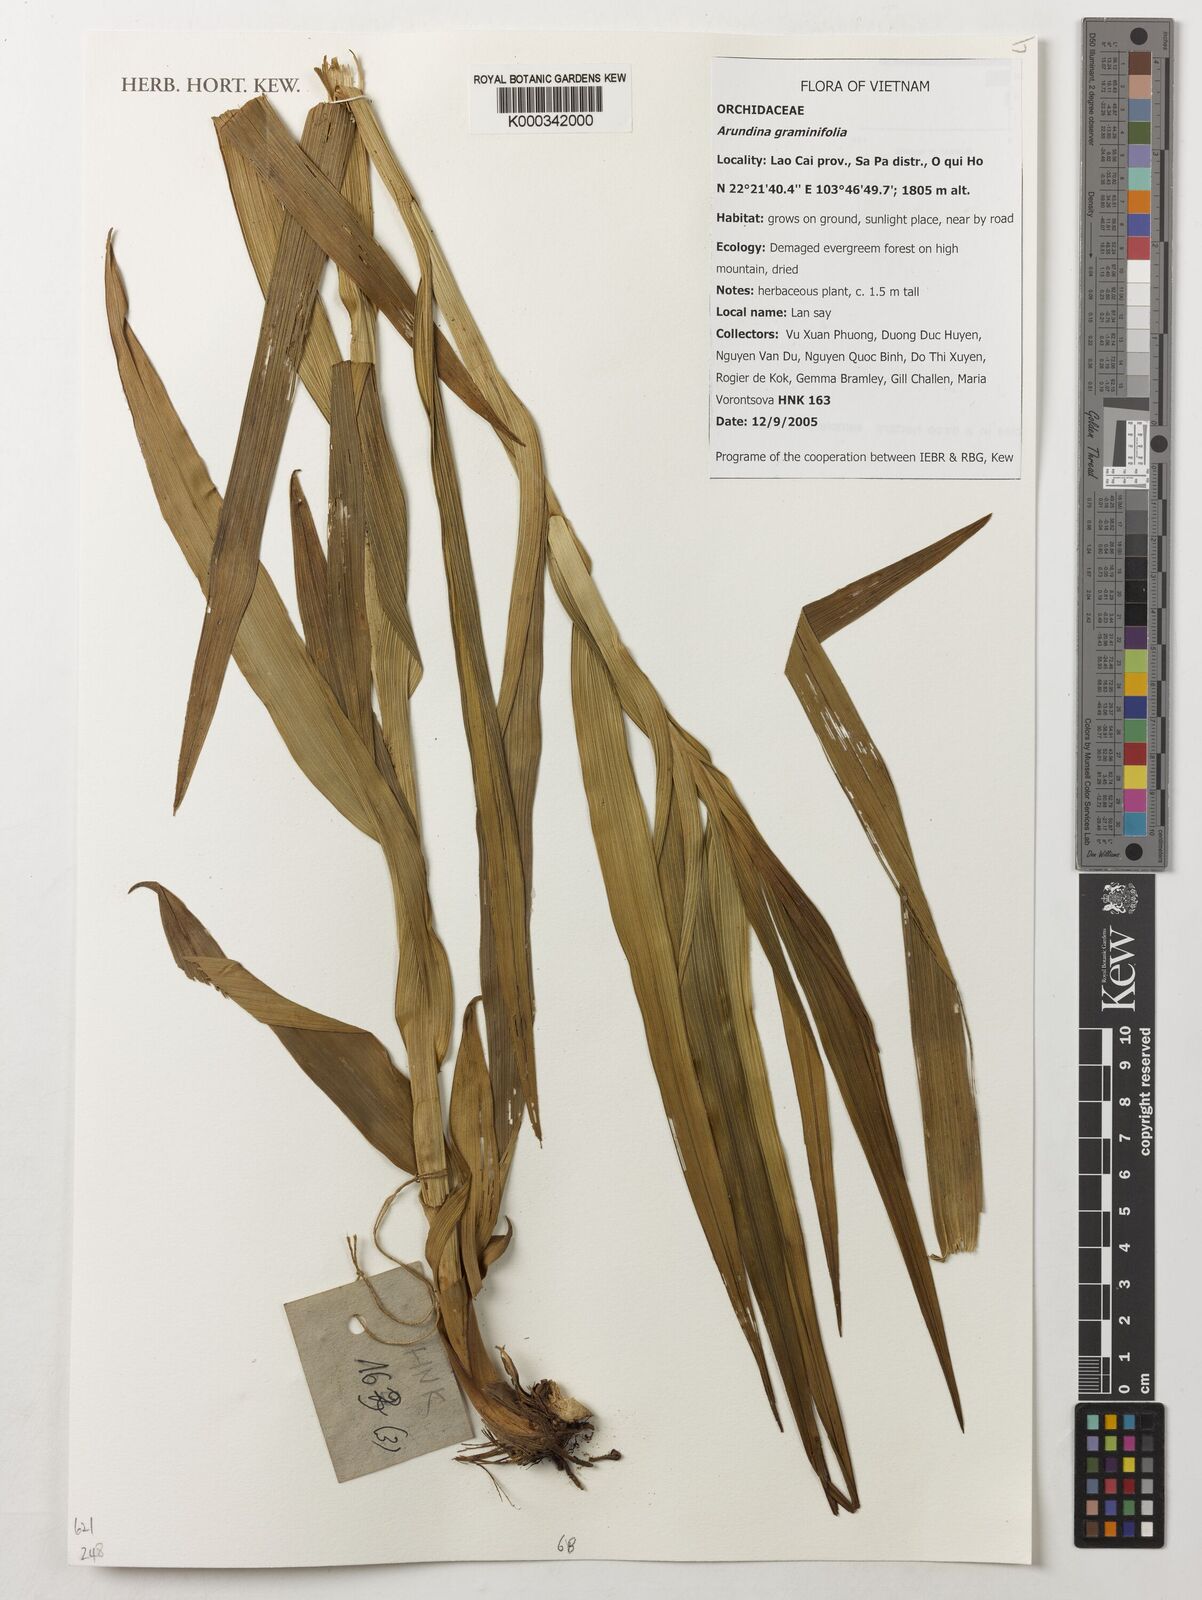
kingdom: Plantae
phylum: Tracheophyta
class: Liliopsida
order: Asparagales
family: Orchidaceae
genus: Arundina
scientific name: Arundina graminifolia
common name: Bamboo orchid
